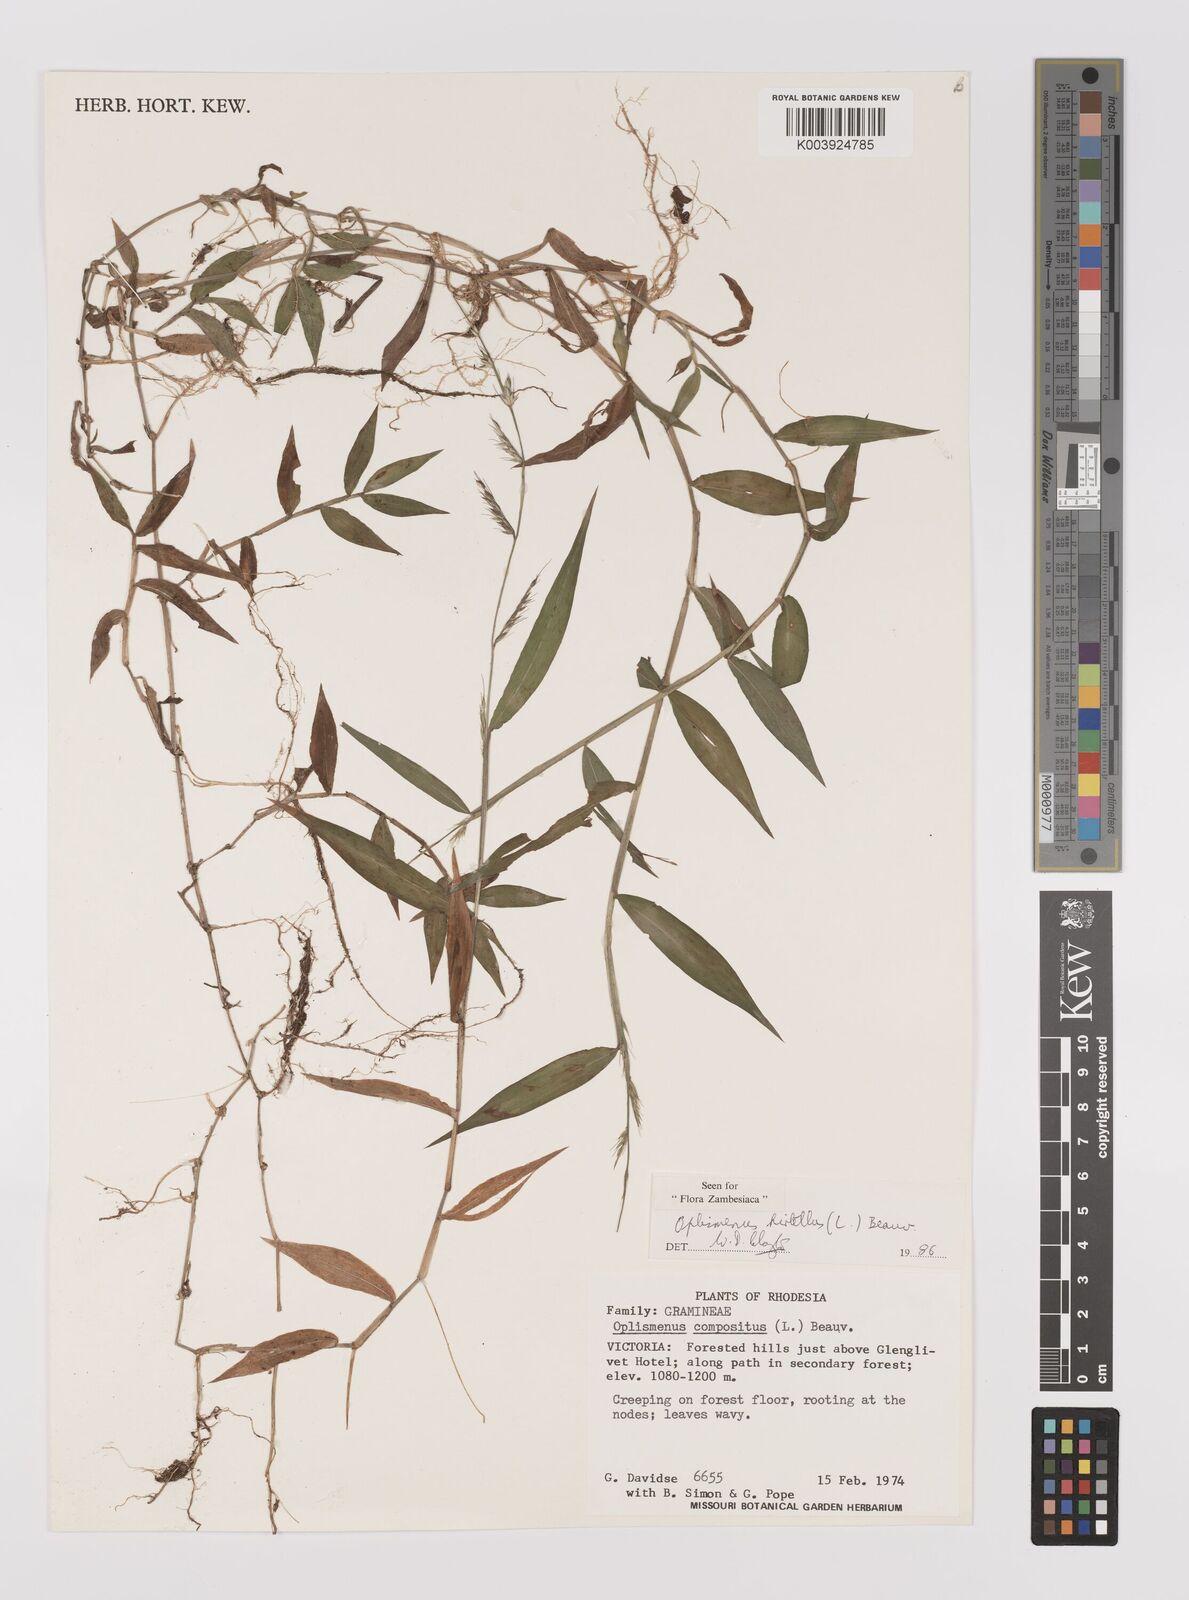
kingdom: Plantae
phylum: Tracheophyta
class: Liliopsida
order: Poales
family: Poaceae
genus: Oplismenus
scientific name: Oplismenus hirtellus
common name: Basketgrass
